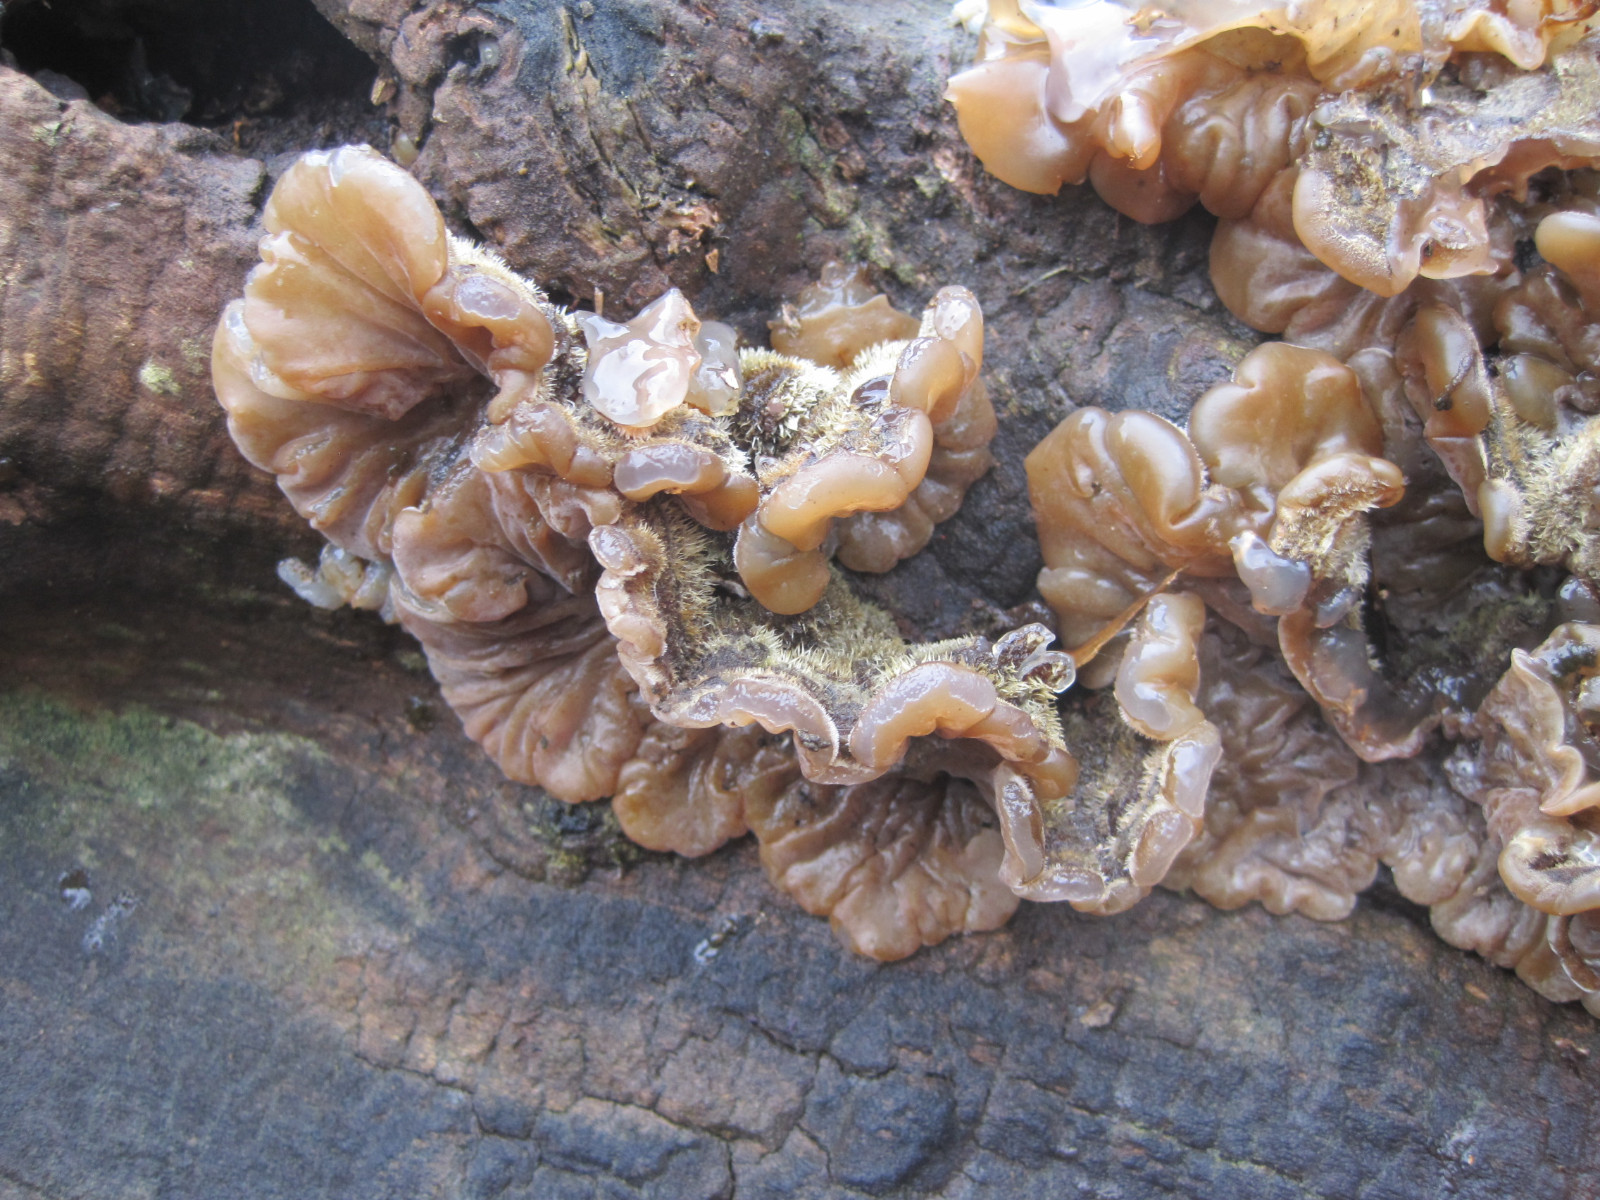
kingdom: Fungi
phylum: Basidiomycota
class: Agaricomycetes
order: Auriculariales
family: Auriculariaceae
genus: Auricularia
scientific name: Auricularia mesenterica
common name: håret judasøre
